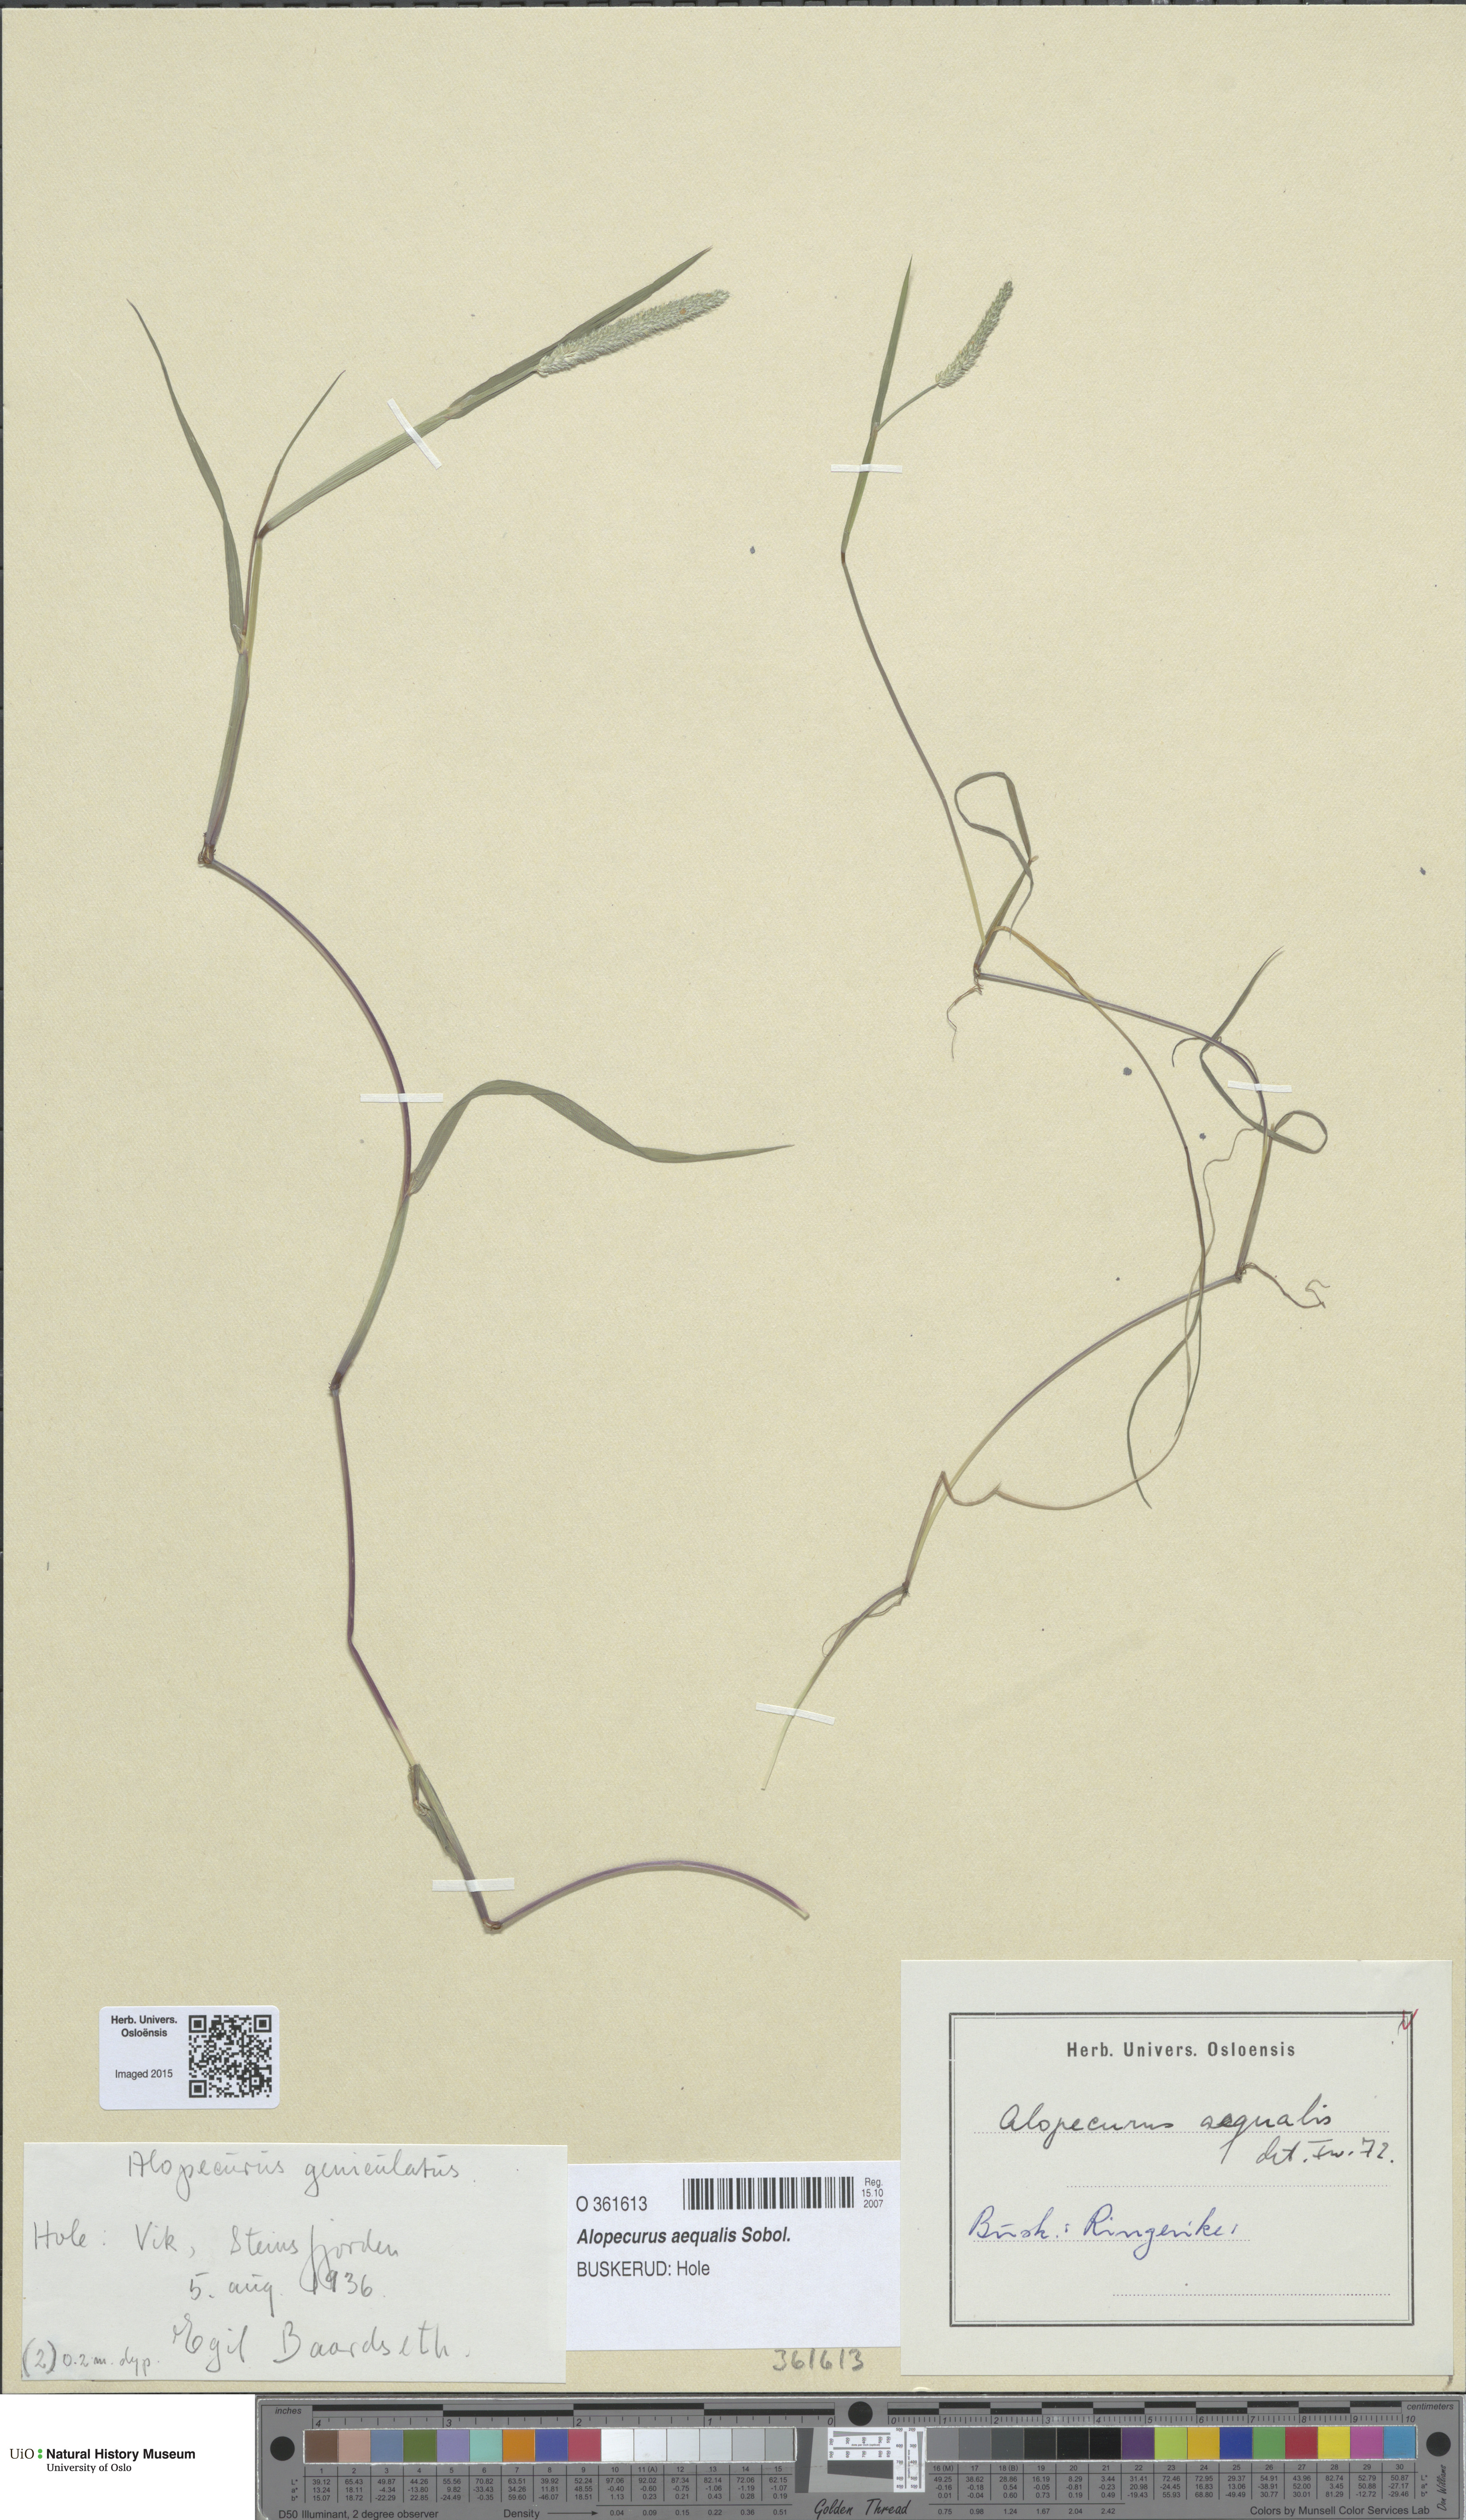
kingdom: Plantae
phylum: Tracheophyta
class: Liliopsida
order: Poales
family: Poaceae
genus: Alopecurus
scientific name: Alopecurus aequalis
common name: Orange foxtail
